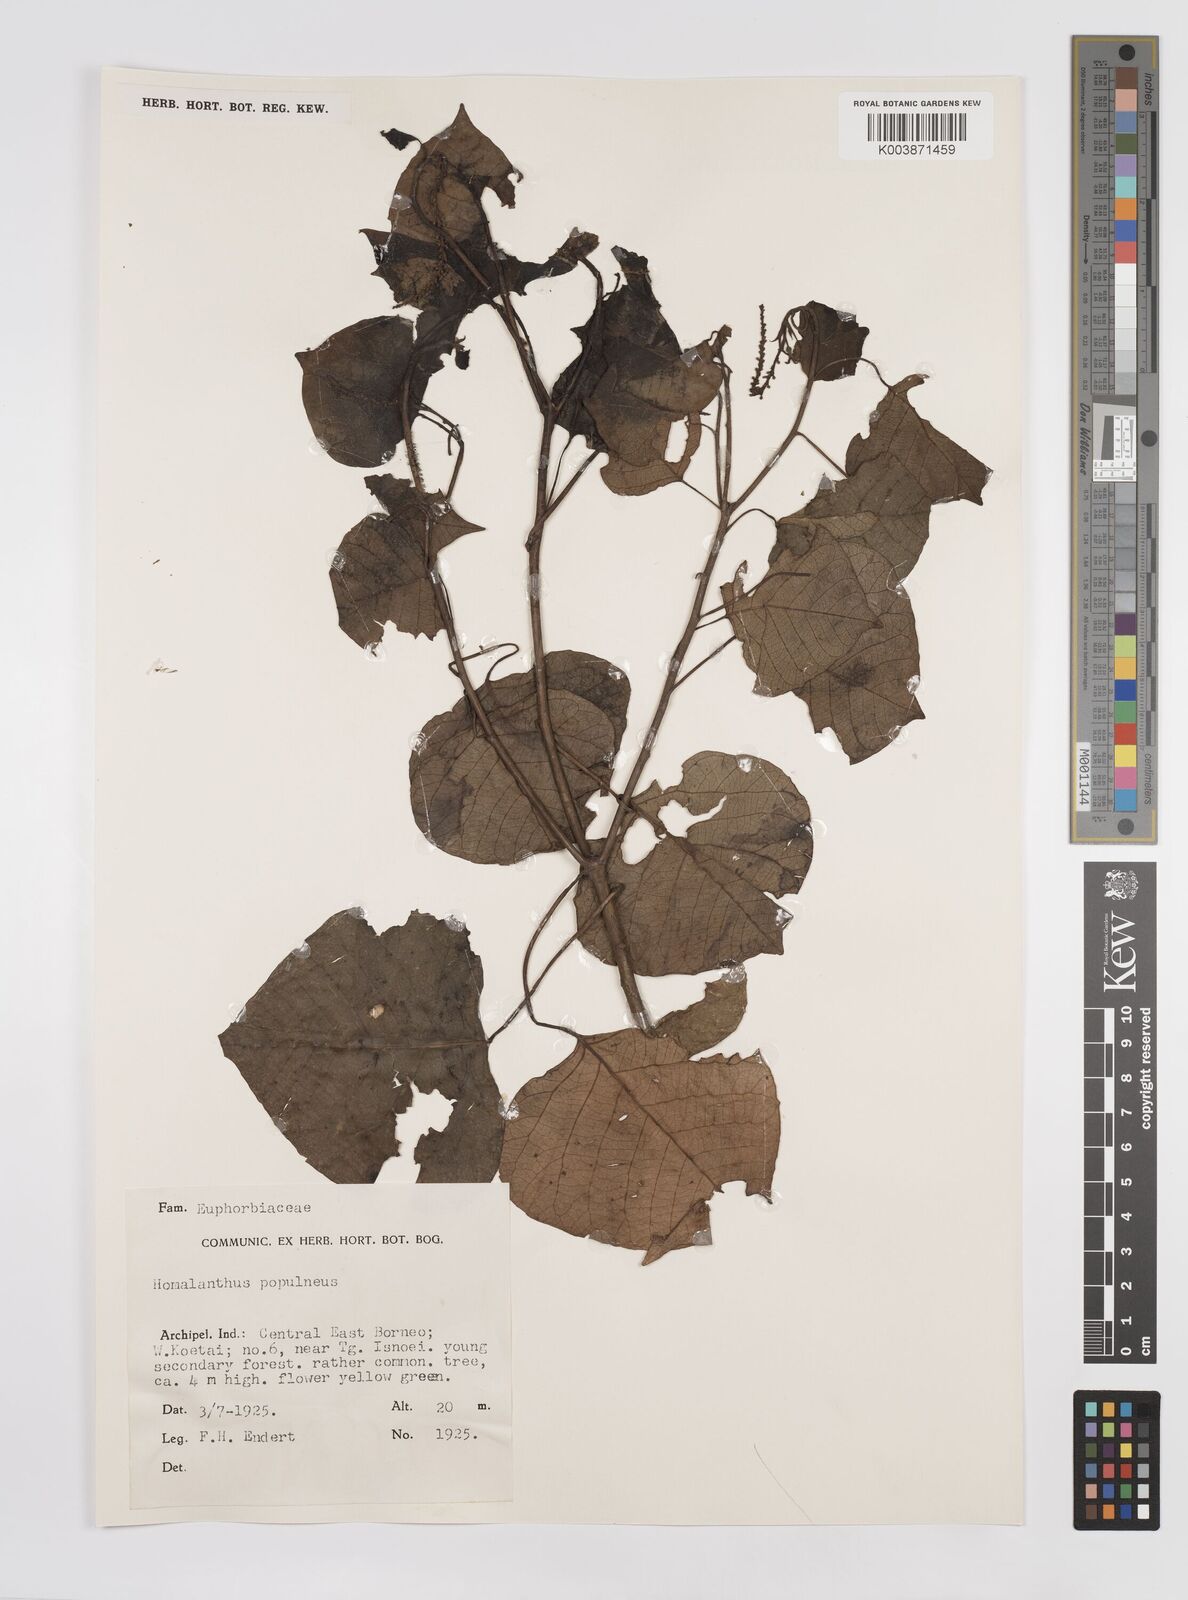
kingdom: Plantae
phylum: Tracheophyta
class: Magnoliopsida
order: Malpighiales
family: Euphorbiaceae
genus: Homalanthus
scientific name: Homalanthus populneus
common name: Spurge
